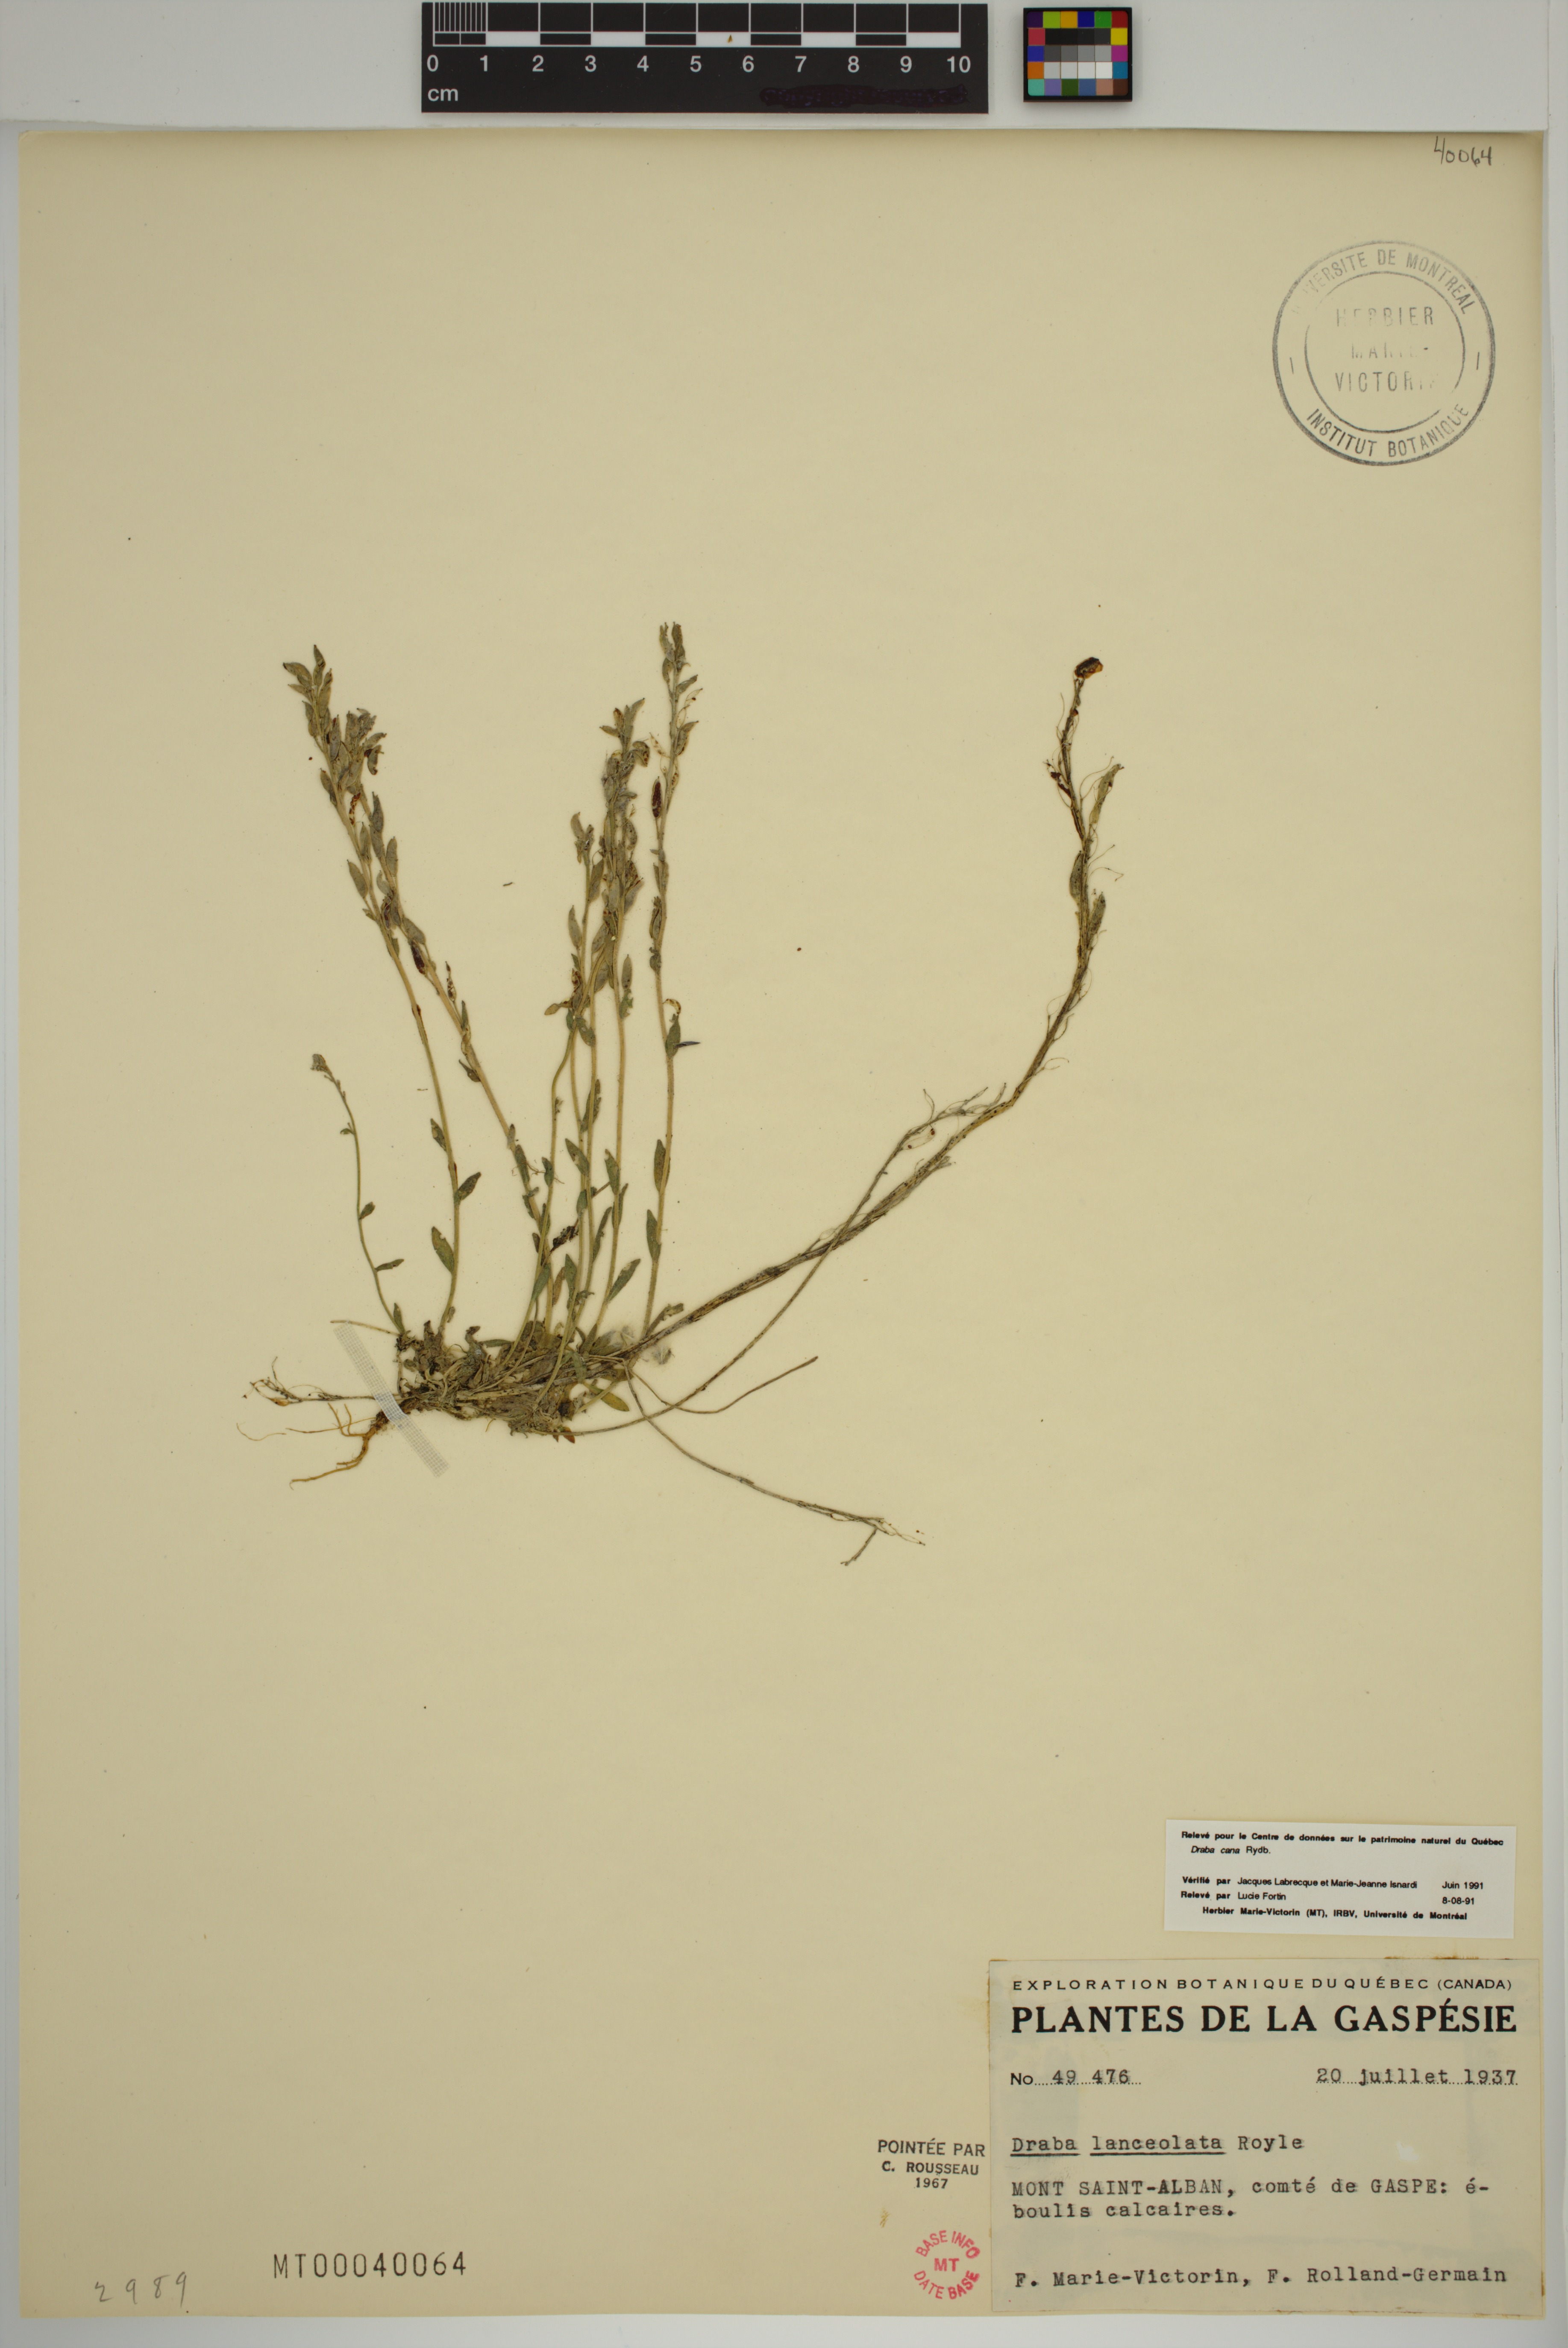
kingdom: Plantae
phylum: Tracheophyta
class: Magnoliopsida
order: Brassicales
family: Brassicaceae
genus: Draba
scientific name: Draba cana
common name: Hoary draba
